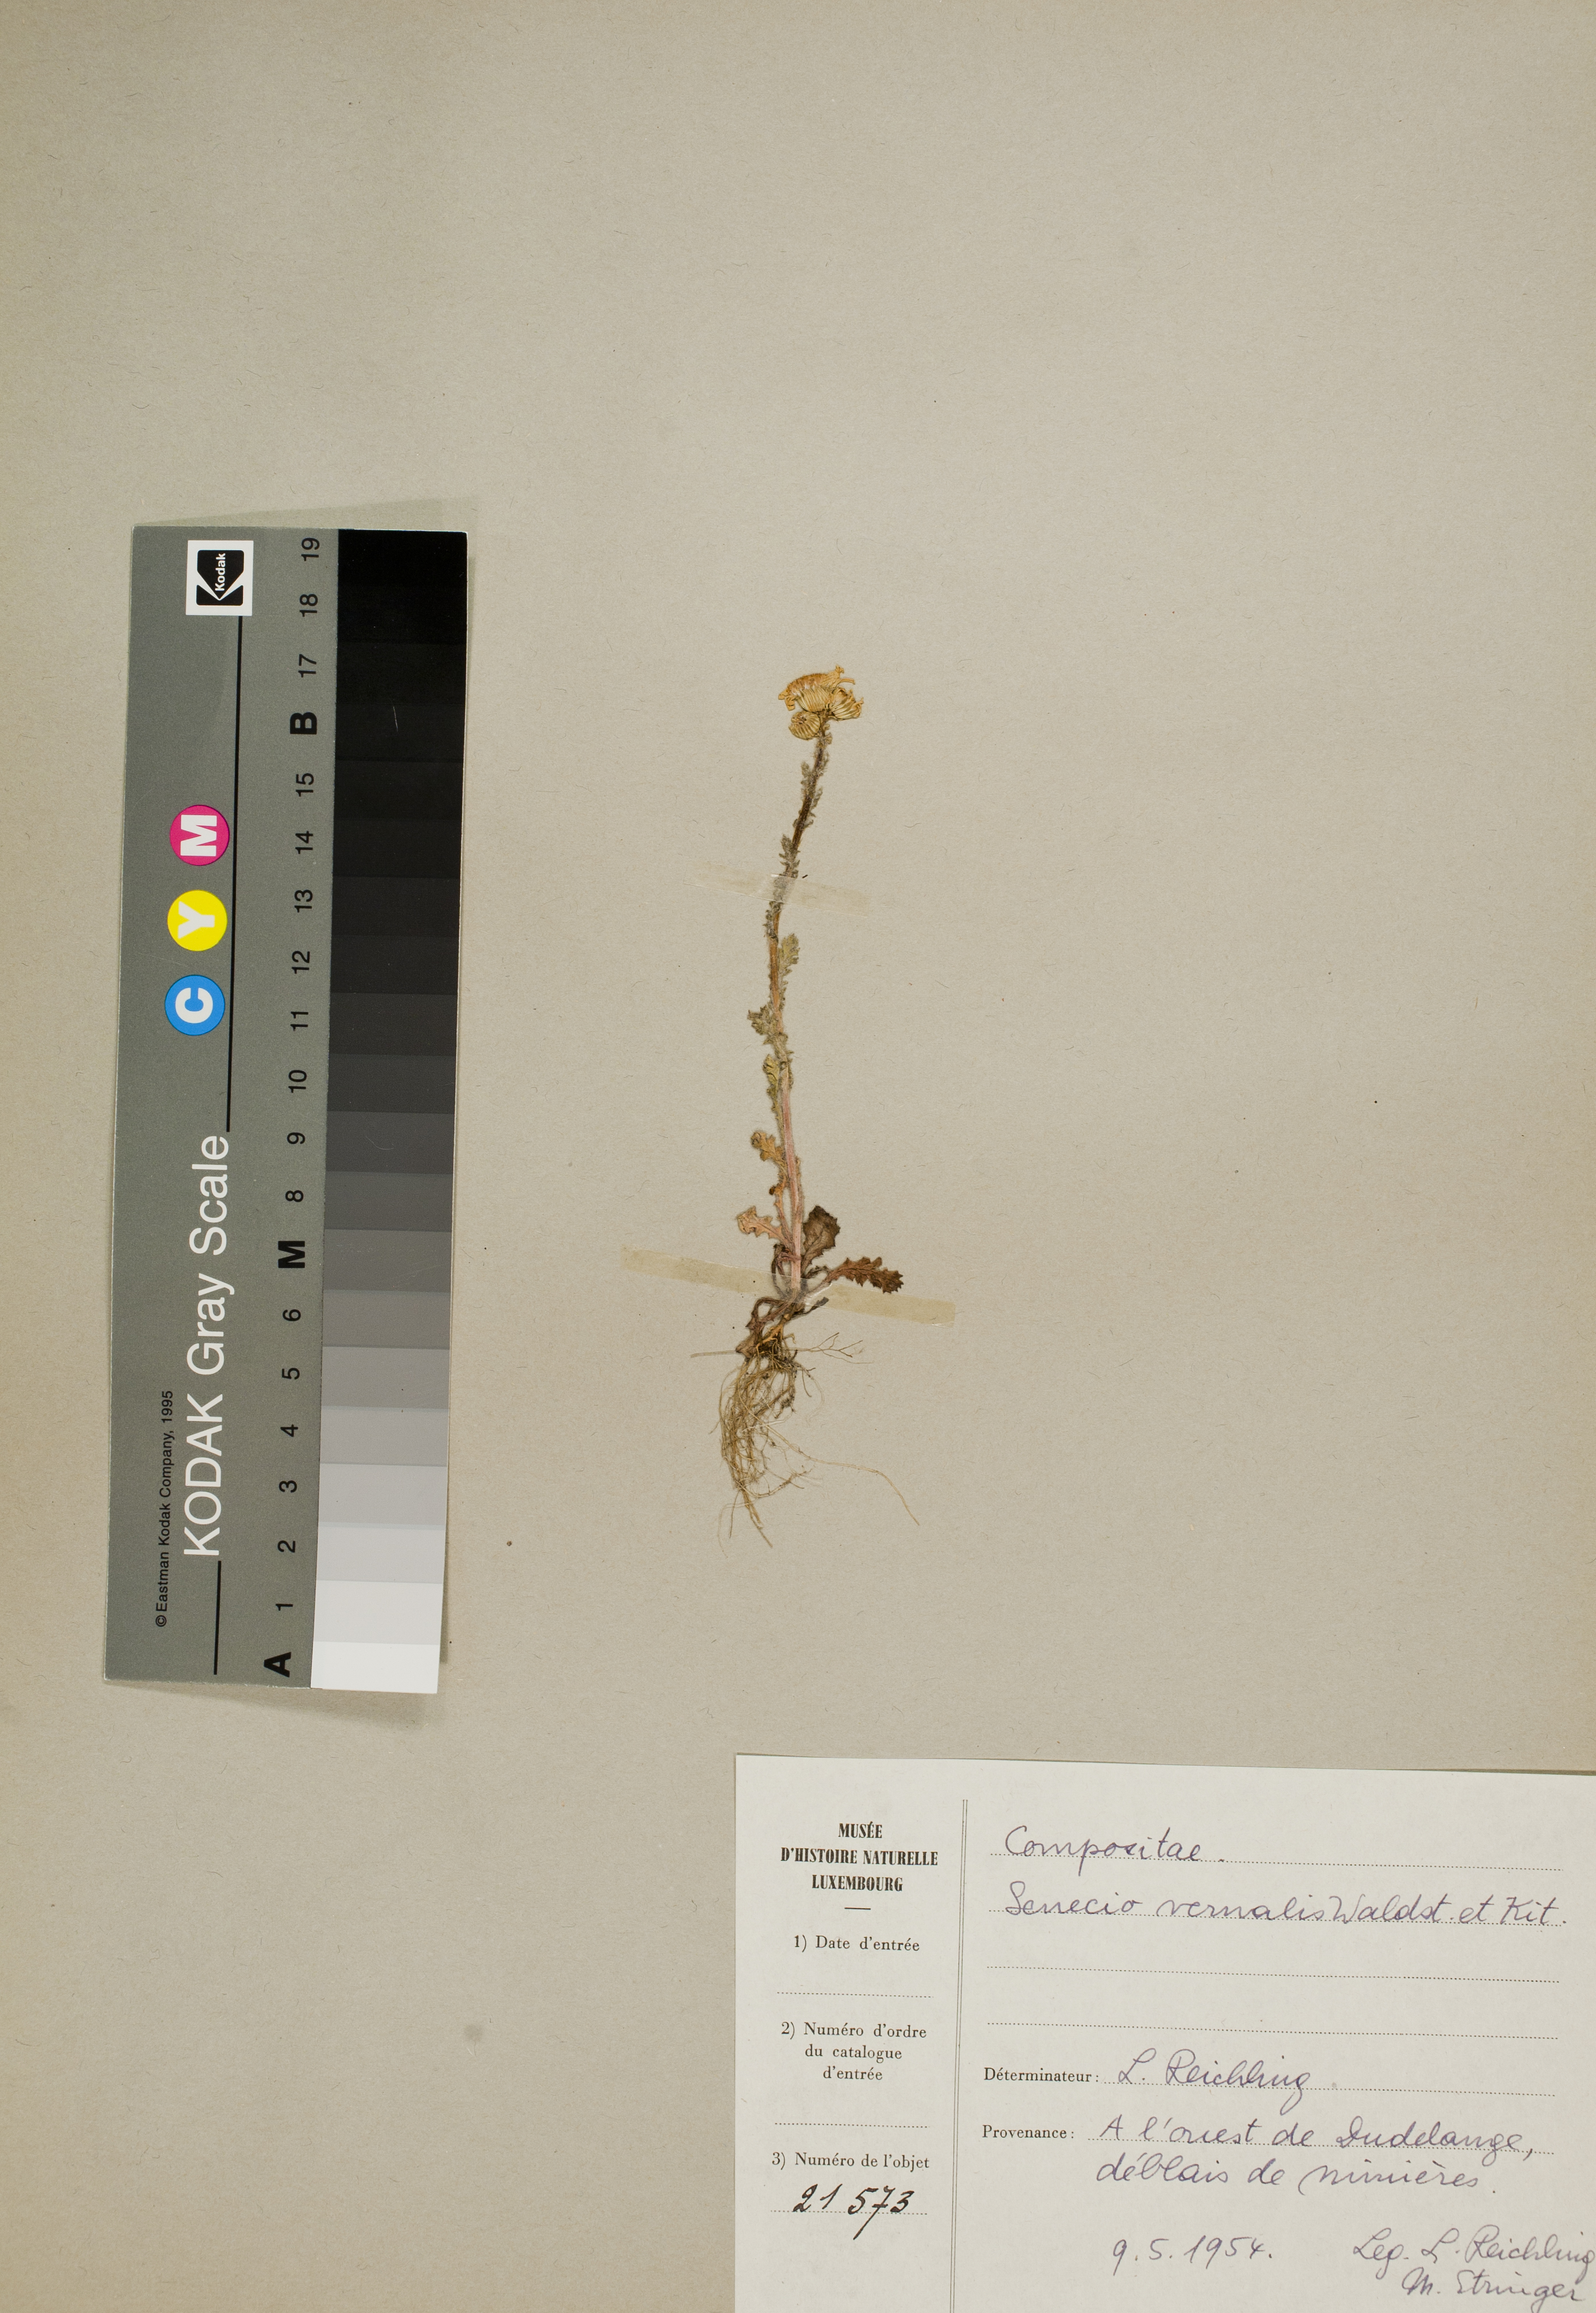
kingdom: Plantae
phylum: Tracheophyta
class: Magnoliopsida
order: Asterales
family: Asteraceae
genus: Senecio
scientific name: Senecio vernalis
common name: Eastern groundsel
